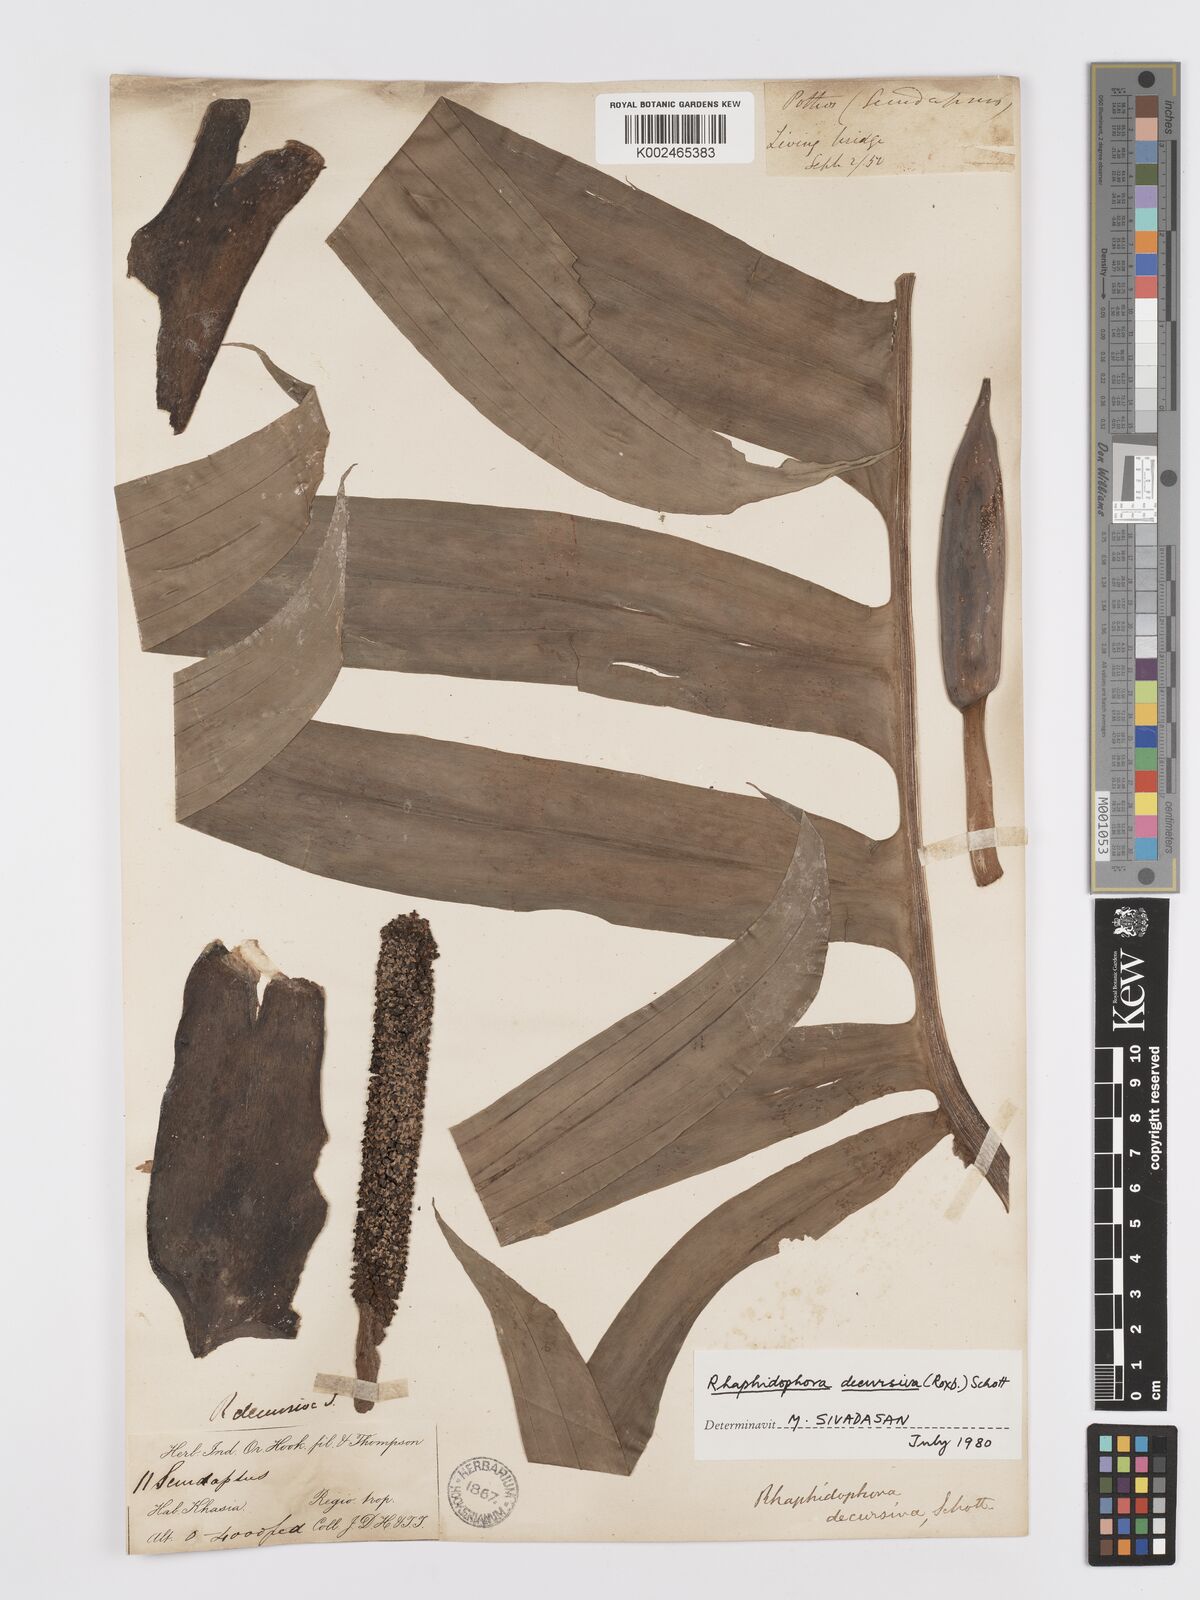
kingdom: Plantae
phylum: Tracheophyta
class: Liliopsida
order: Alismatales
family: Araceae
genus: Rhaphidophora
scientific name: Rhaphidophora decursiva
